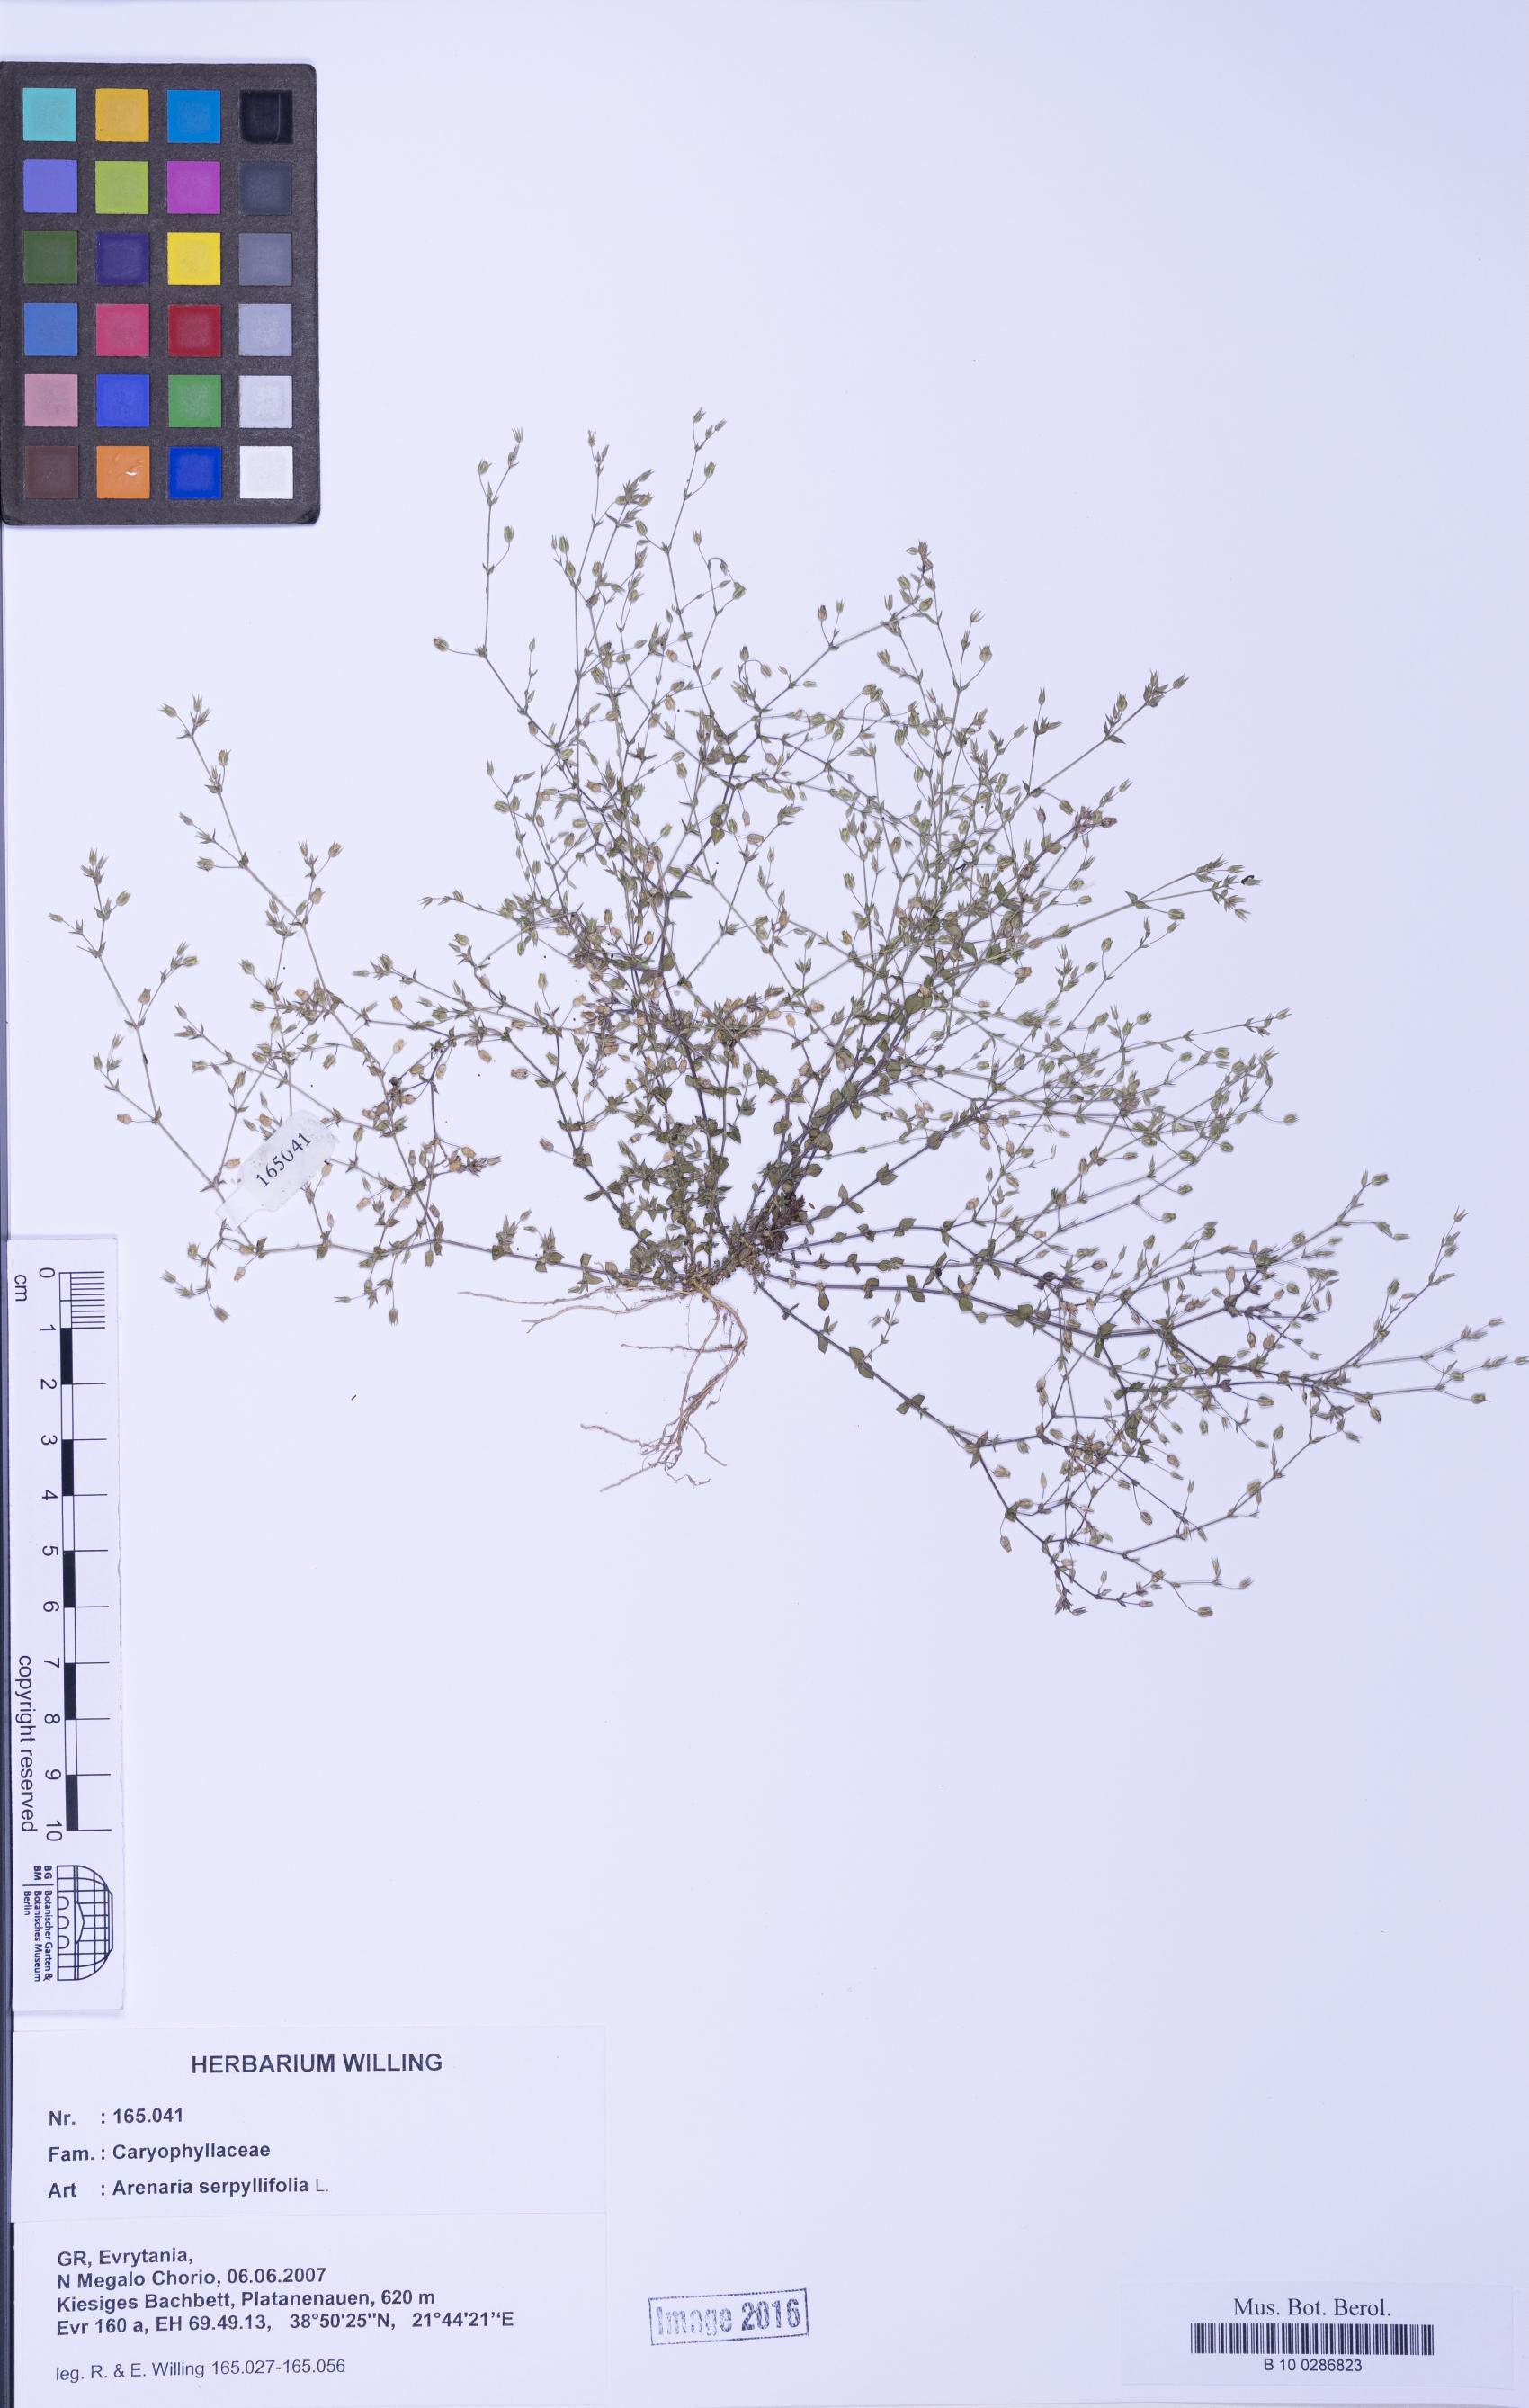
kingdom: Plantae
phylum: Tracheophyta
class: Magnoliopsida
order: Caryophyllales
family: Caryophyllaceae
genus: Arenaria
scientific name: Arenaria serpyllifolia
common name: Thyme-leaved sandwort
